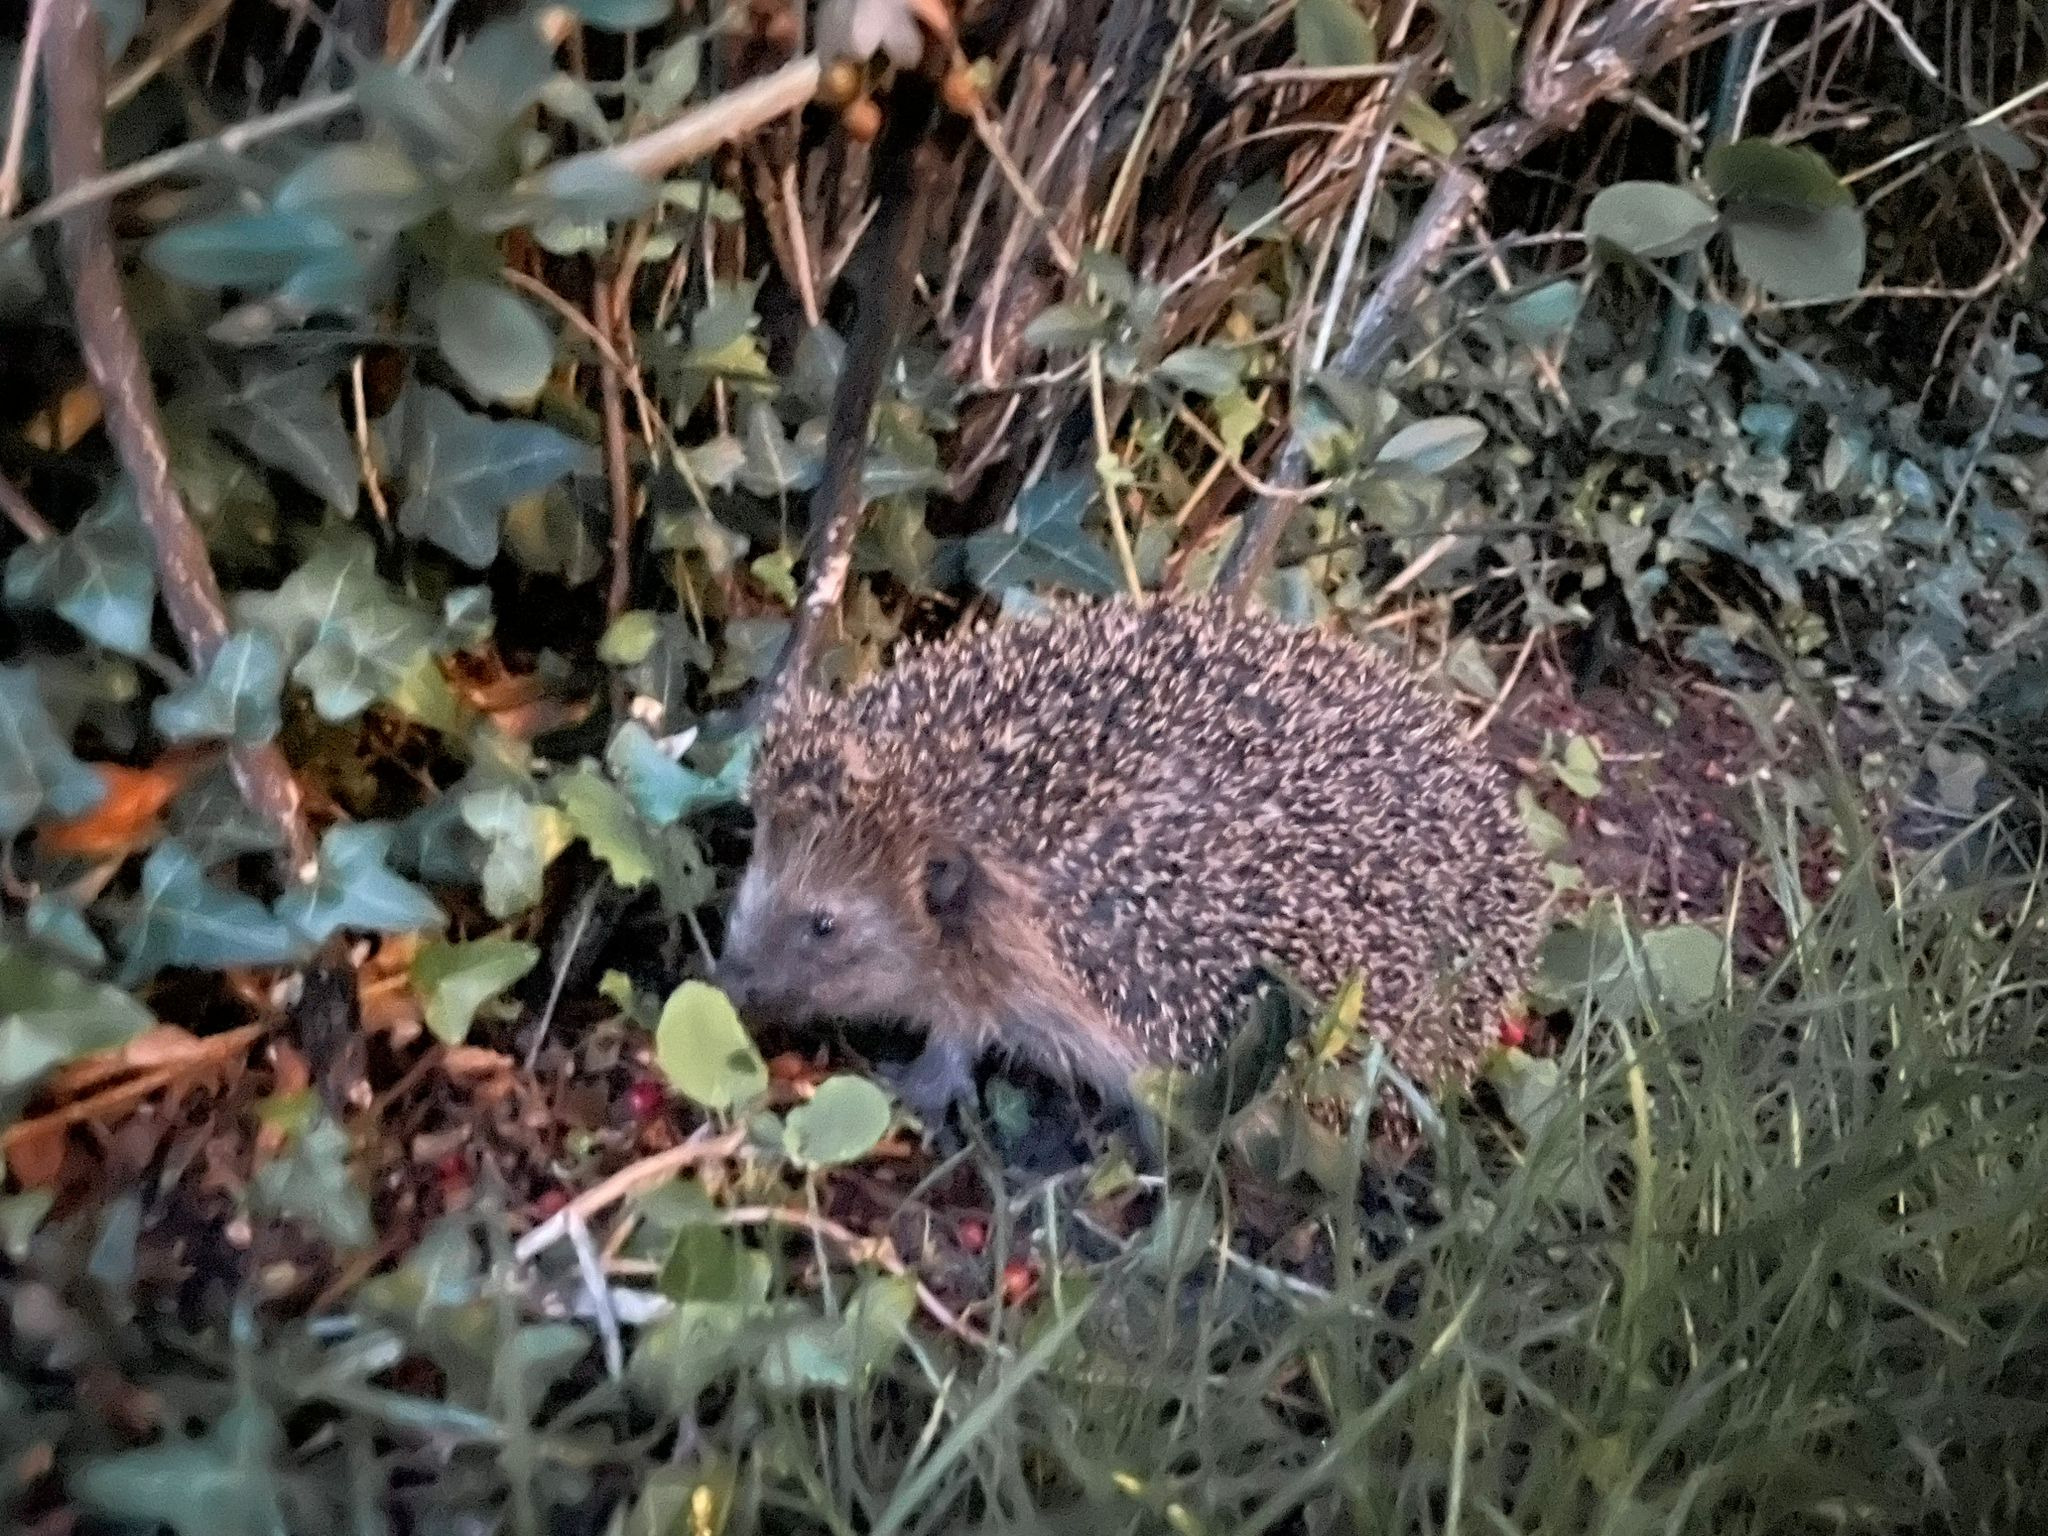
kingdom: Animalia
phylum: Chordata
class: Mammalia
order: Erinaceomorpha
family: Erinaceidae
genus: Erinaceus
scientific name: Erinaceus europaeus
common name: Pindsvin
